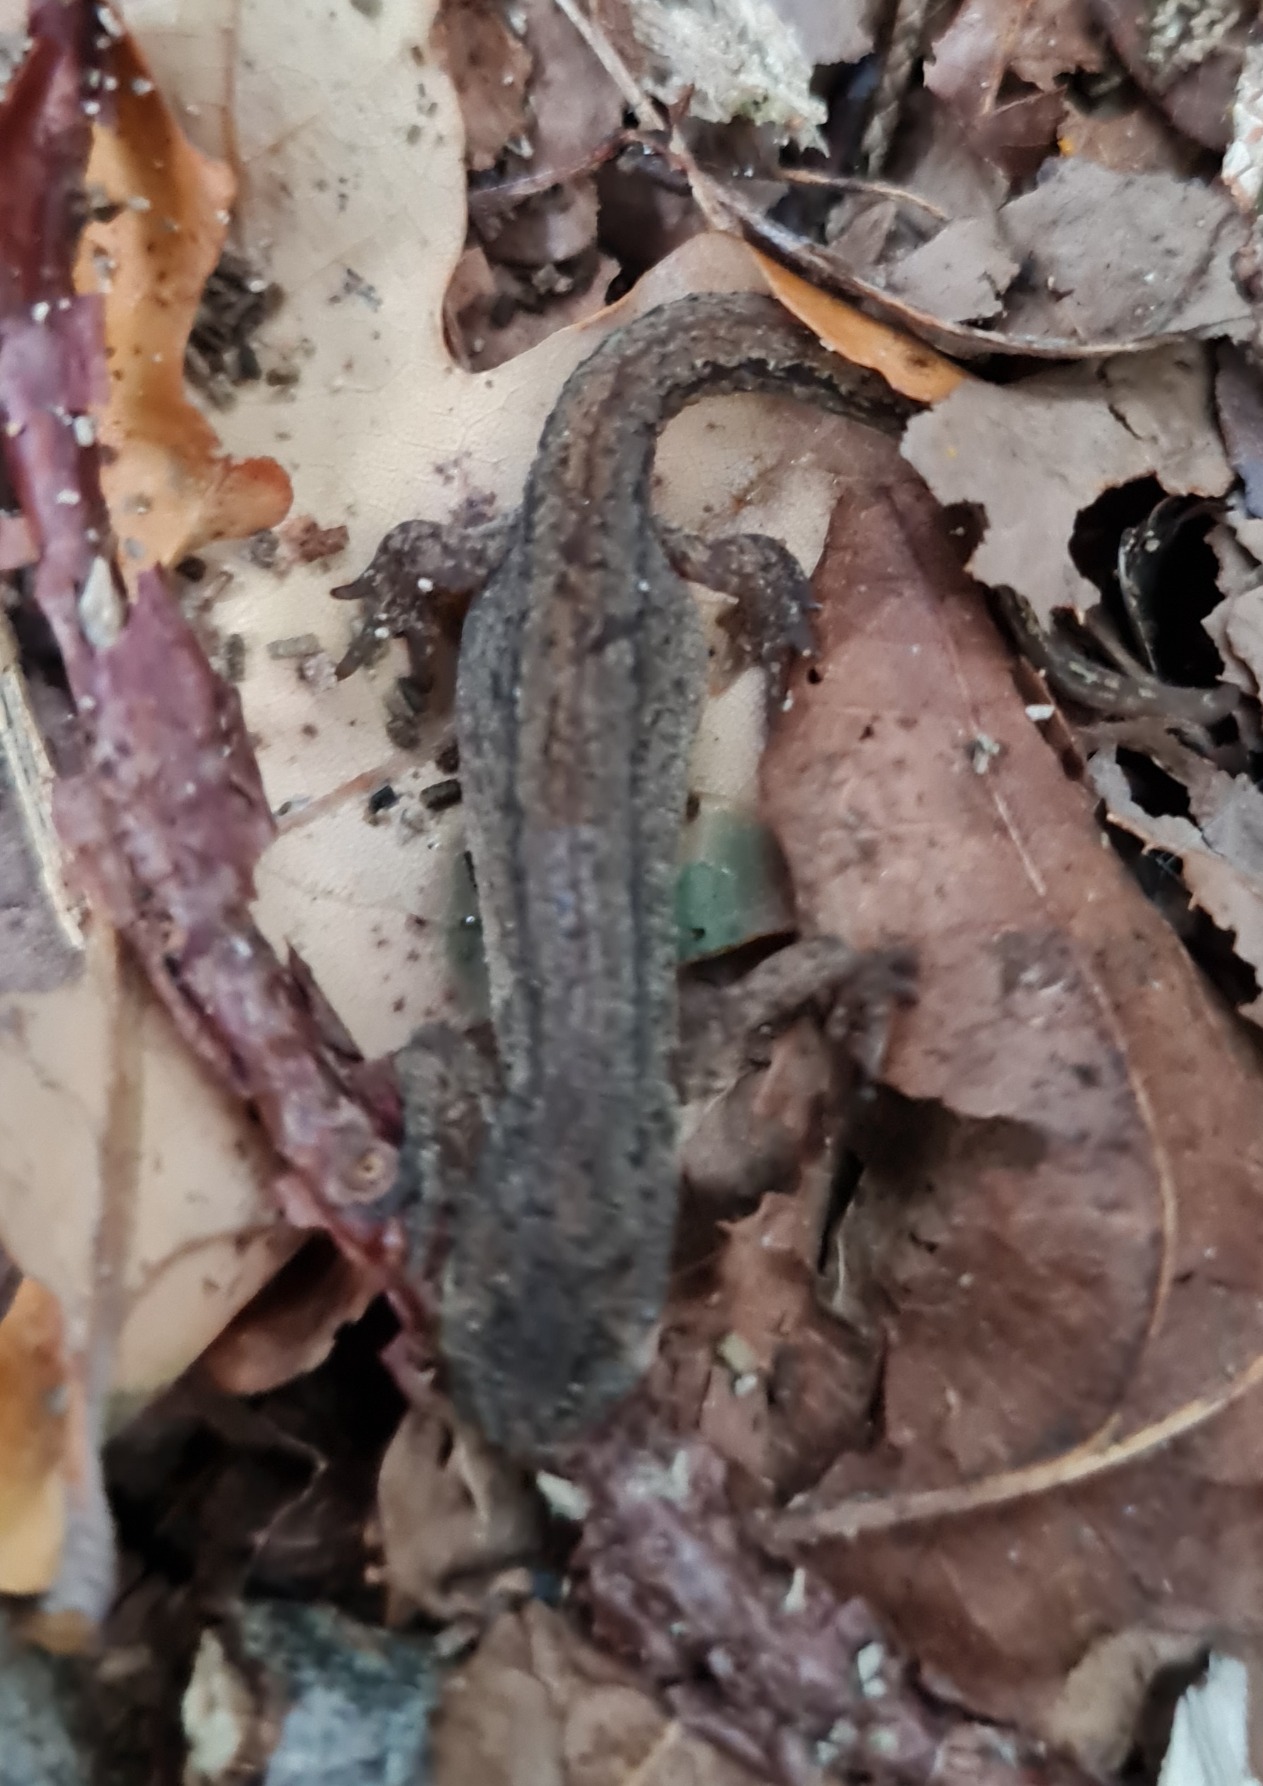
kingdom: Animalia
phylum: Chordata
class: Amphibia
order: Caudata
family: Salamandridae
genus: Lissotriton
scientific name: Lissotriton vulgaris
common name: Lille vandsalamander
